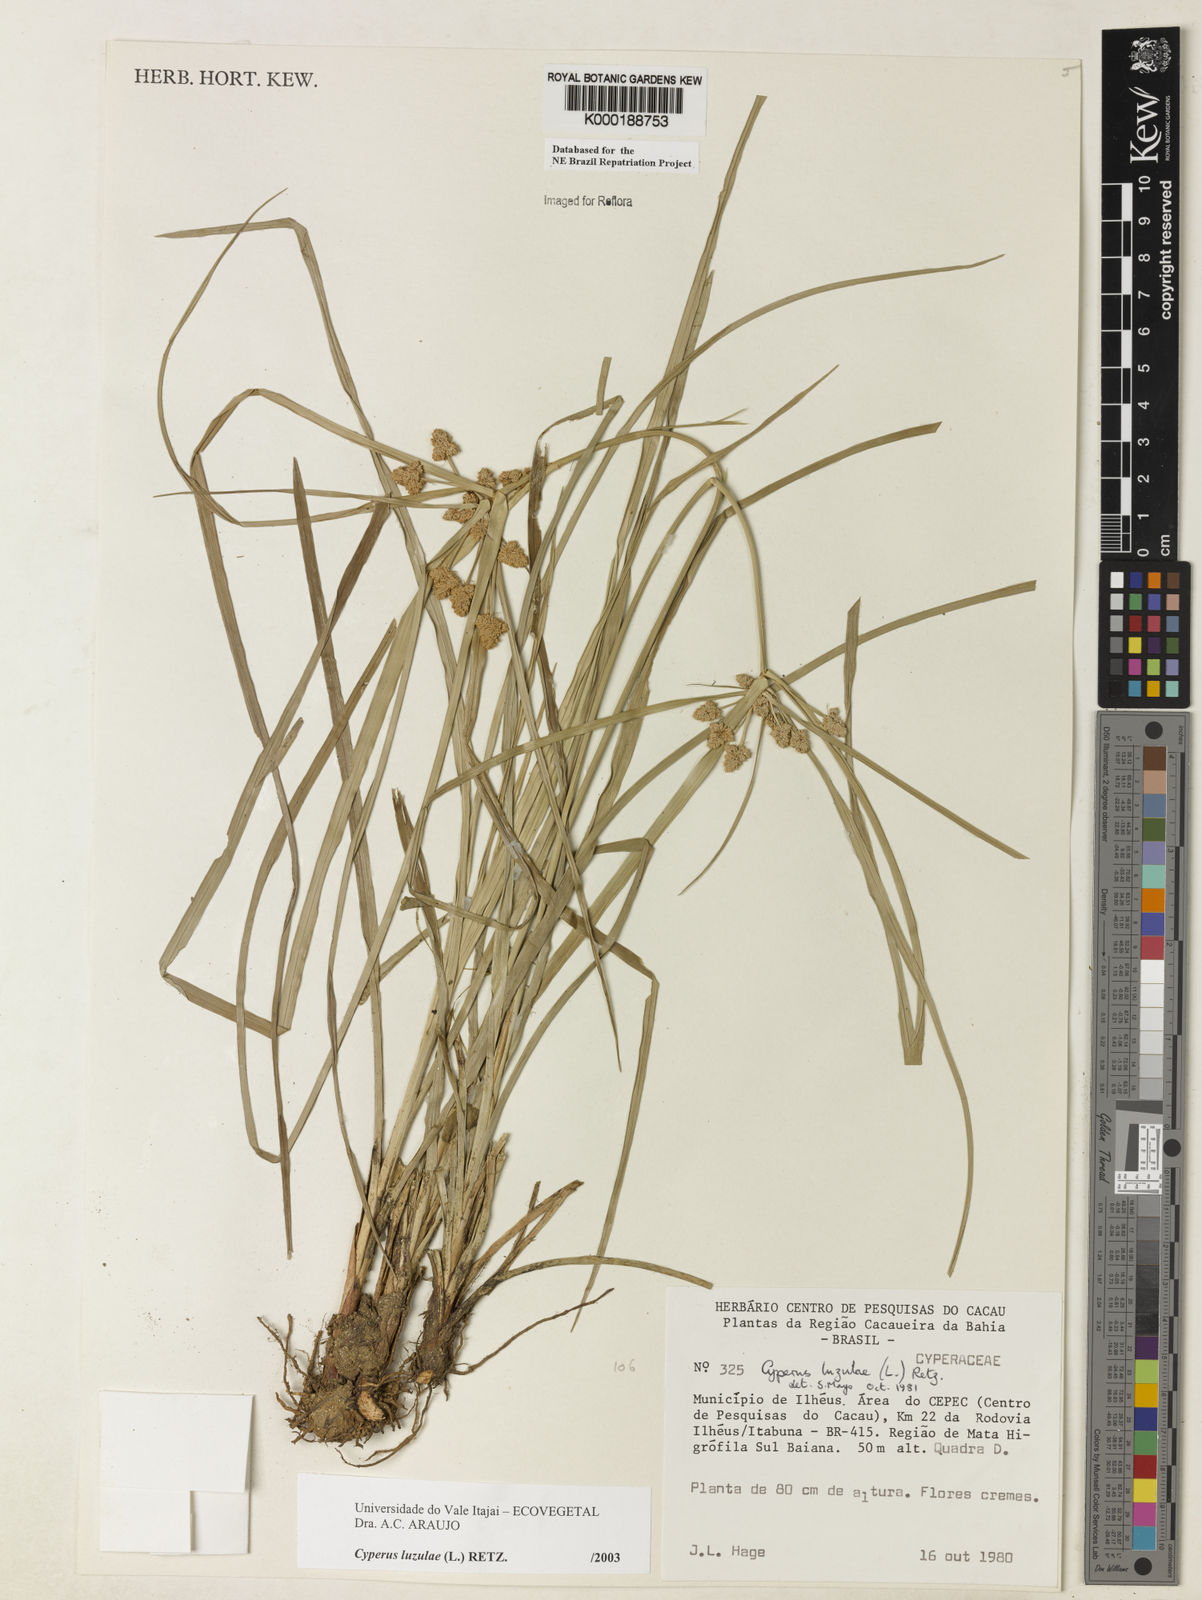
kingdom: Plantae
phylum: Tracheophyta
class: Liliopsida
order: Poales
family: Cyperaceae
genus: Cyperus
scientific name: Cyperus luzulae
